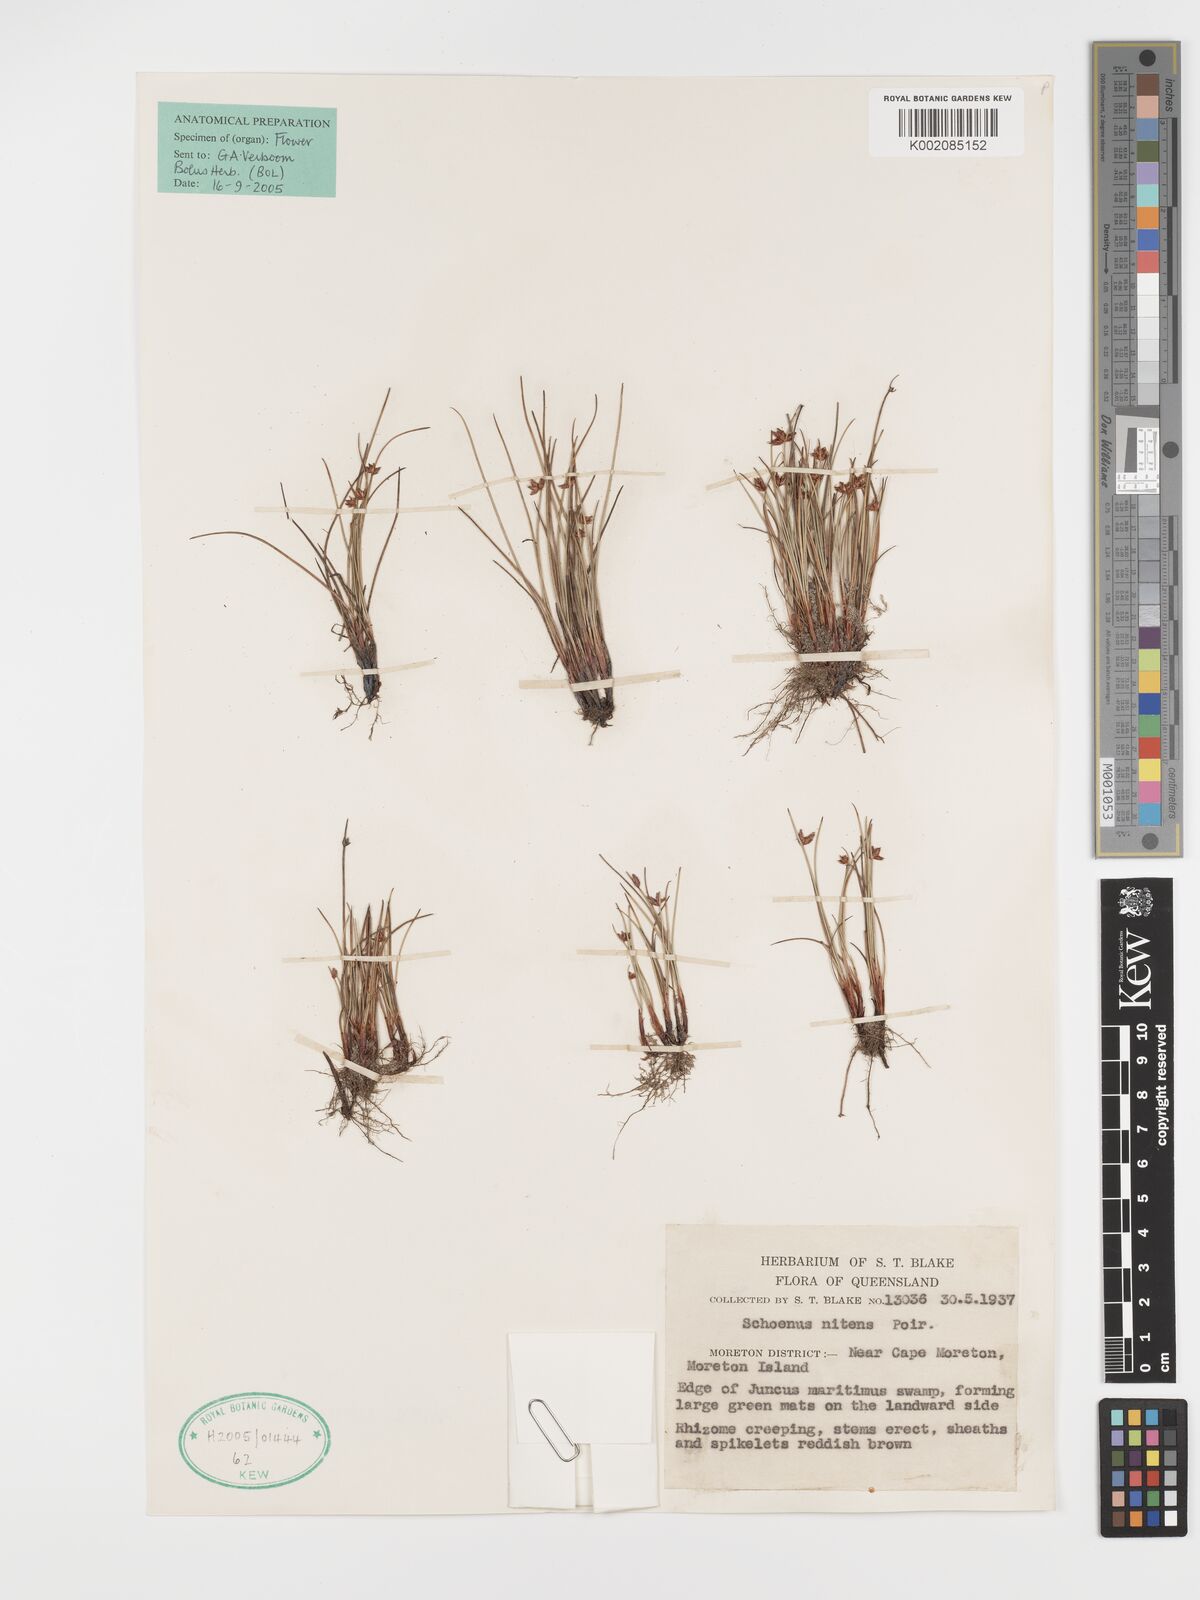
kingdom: Plantae
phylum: Tracheophyta
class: Liliopsida
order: Poales
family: Cyperaceae
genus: Schoenus
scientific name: Schoenus nitens
